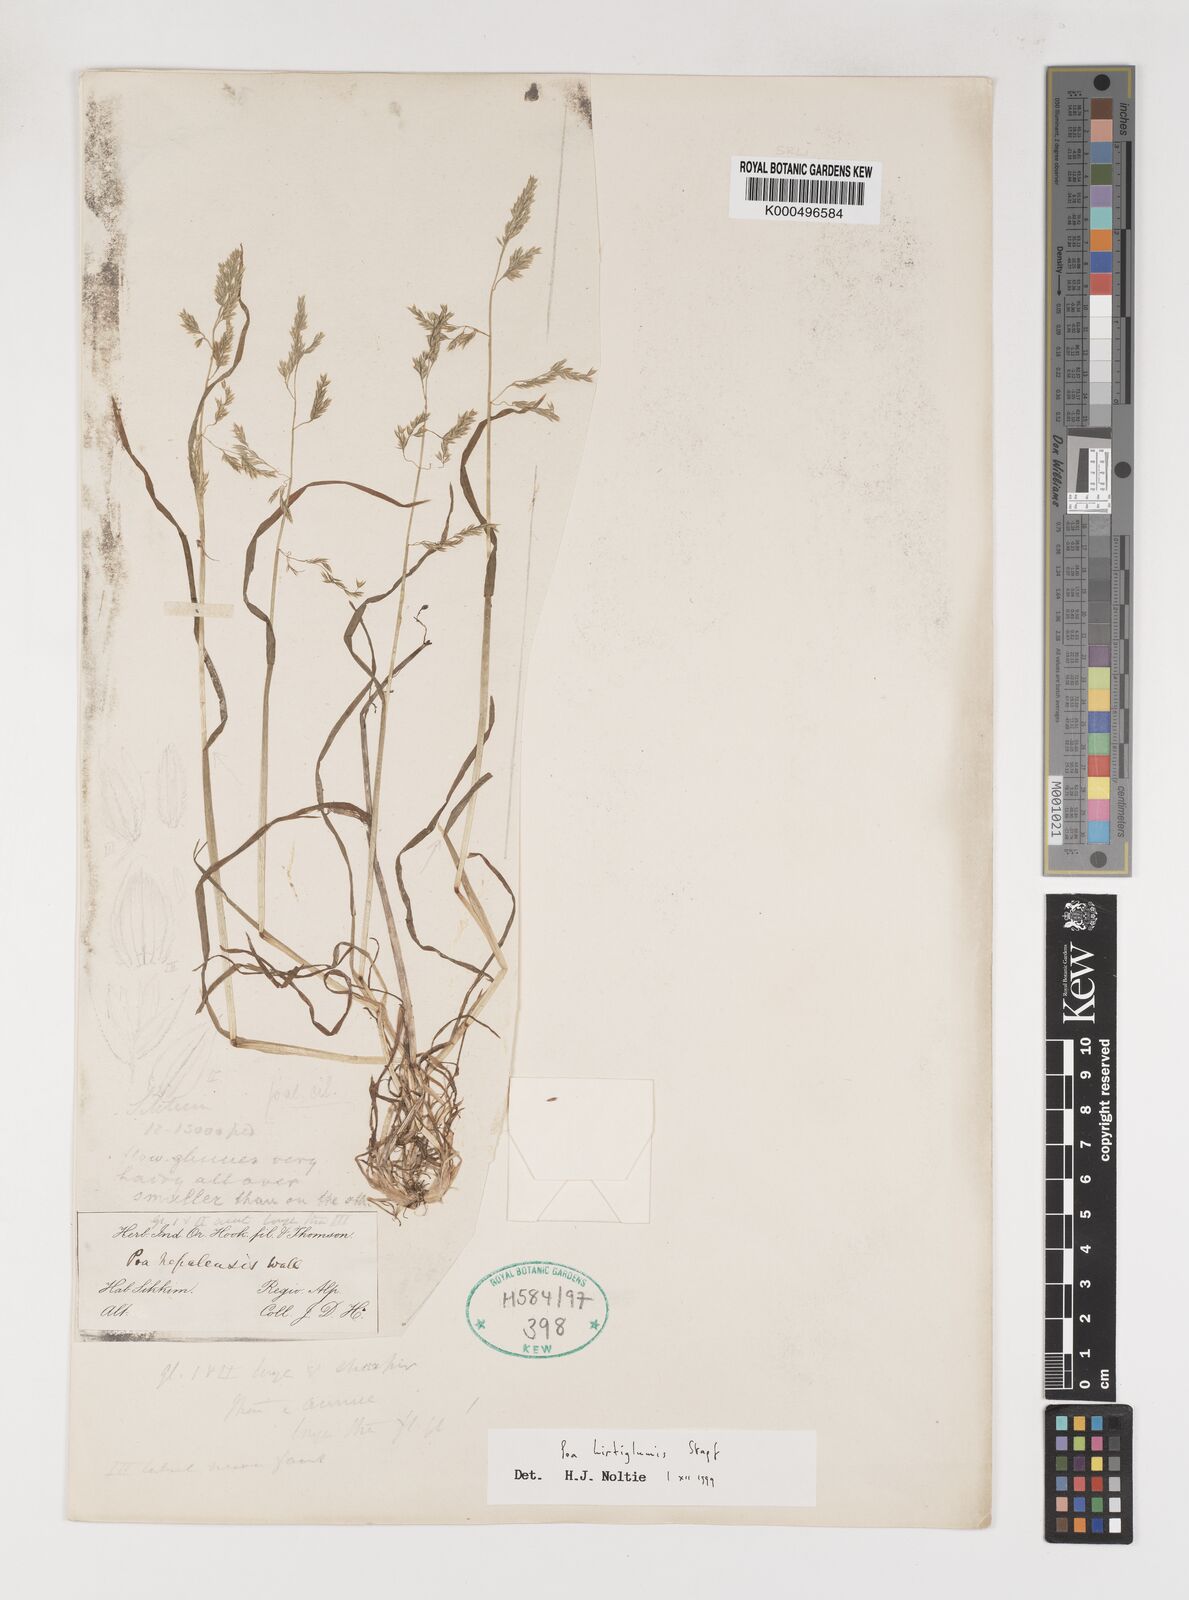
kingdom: Plantae
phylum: Tracheophyta
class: Liliopsida
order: Poales
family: Poaceae
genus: Poa
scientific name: Poa hirtiglumis
